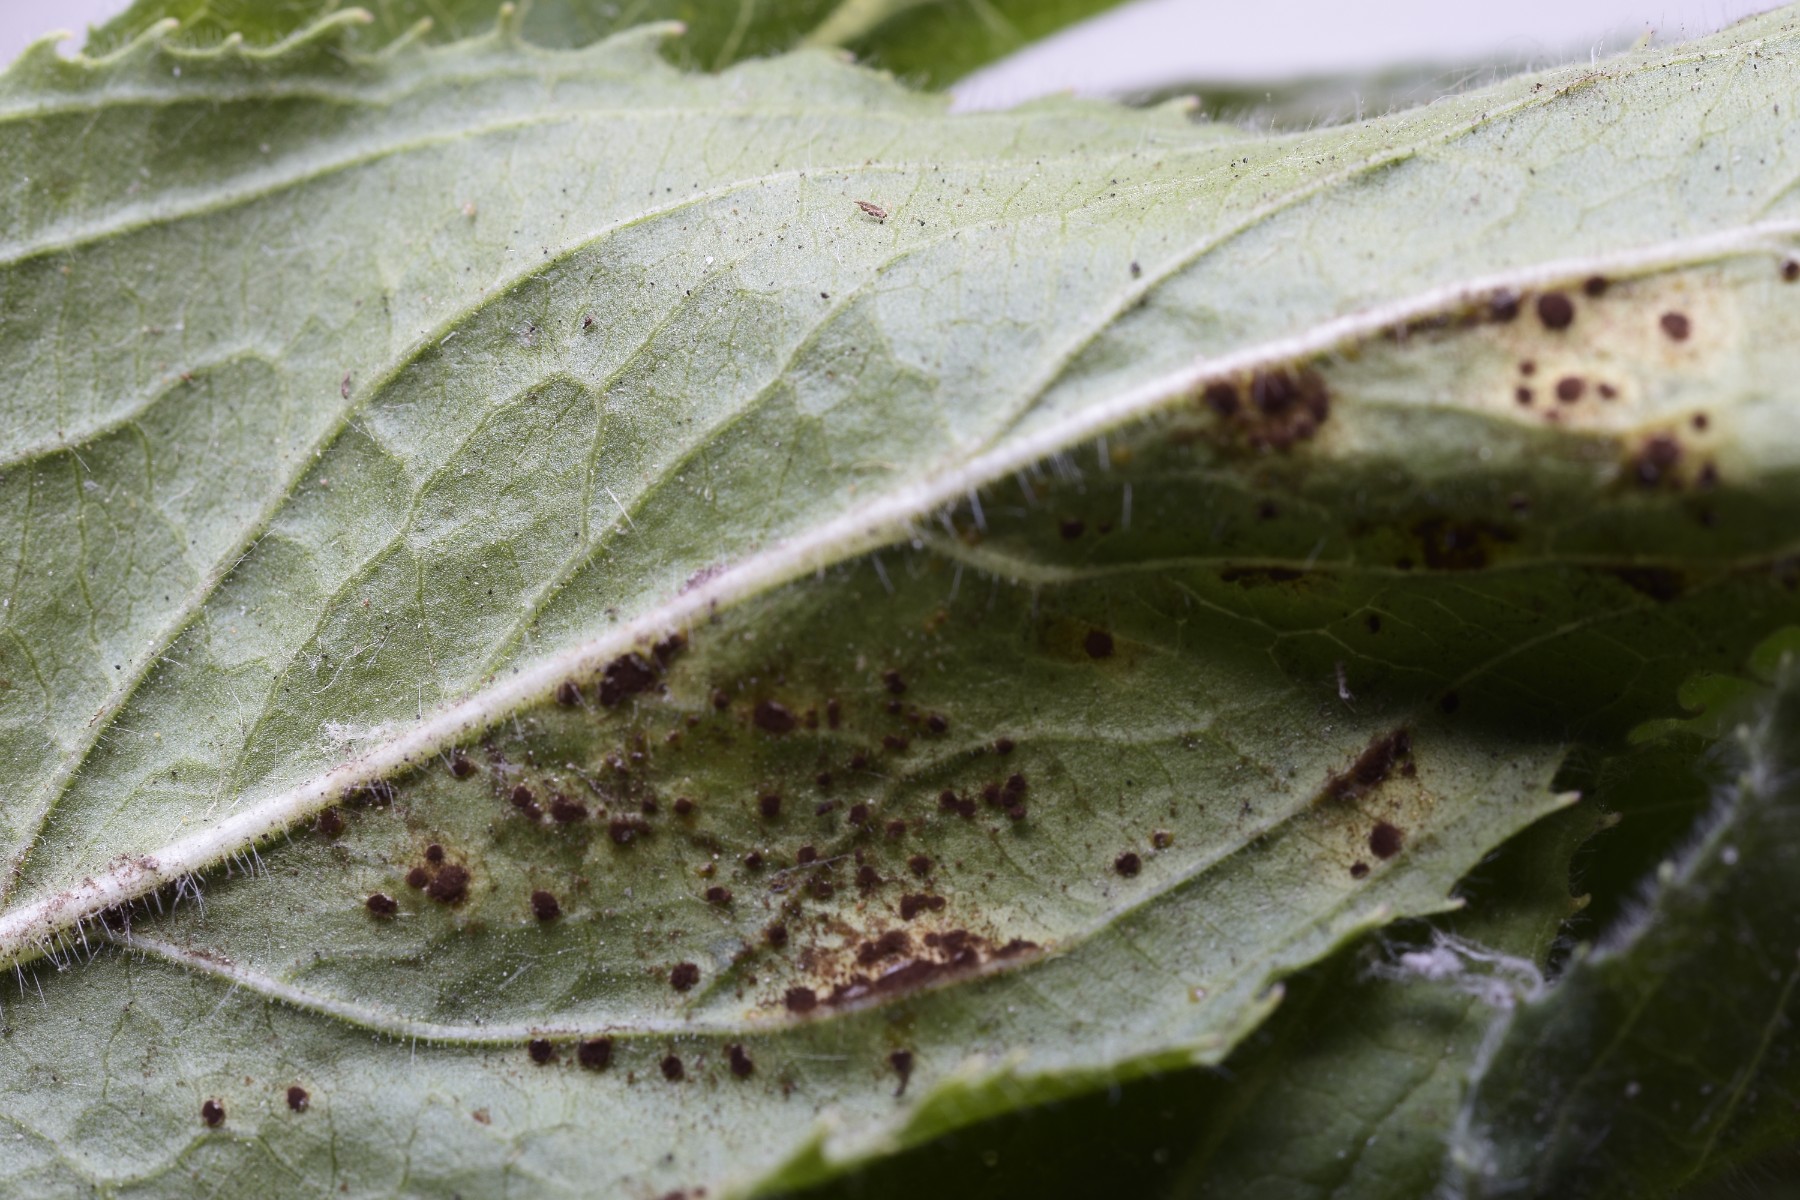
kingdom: Fungi
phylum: Basidiomycota
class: Pucciniomycetes
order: Pucciniales
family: Pucciniaceae
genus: Puccinia
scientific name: Puccinia pulverulenta
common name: dueurt-tvecellerust
